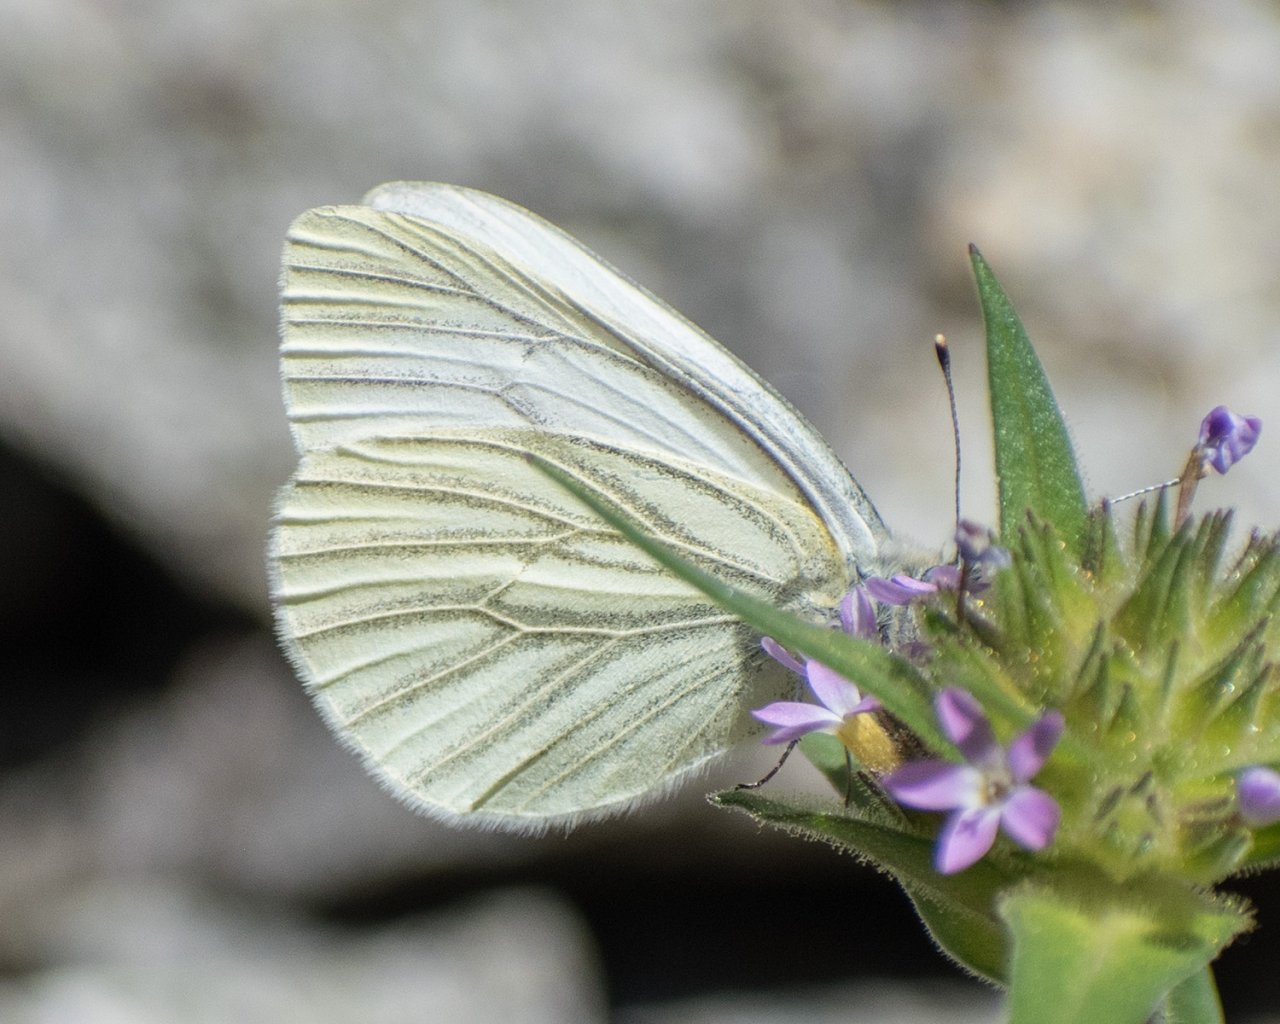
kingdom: Animalia
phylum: Arthropoda
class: Insecta
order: Lepidoptera
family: Pieridae
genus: Pieris
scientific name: Pieris marginalis
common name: Margined White
